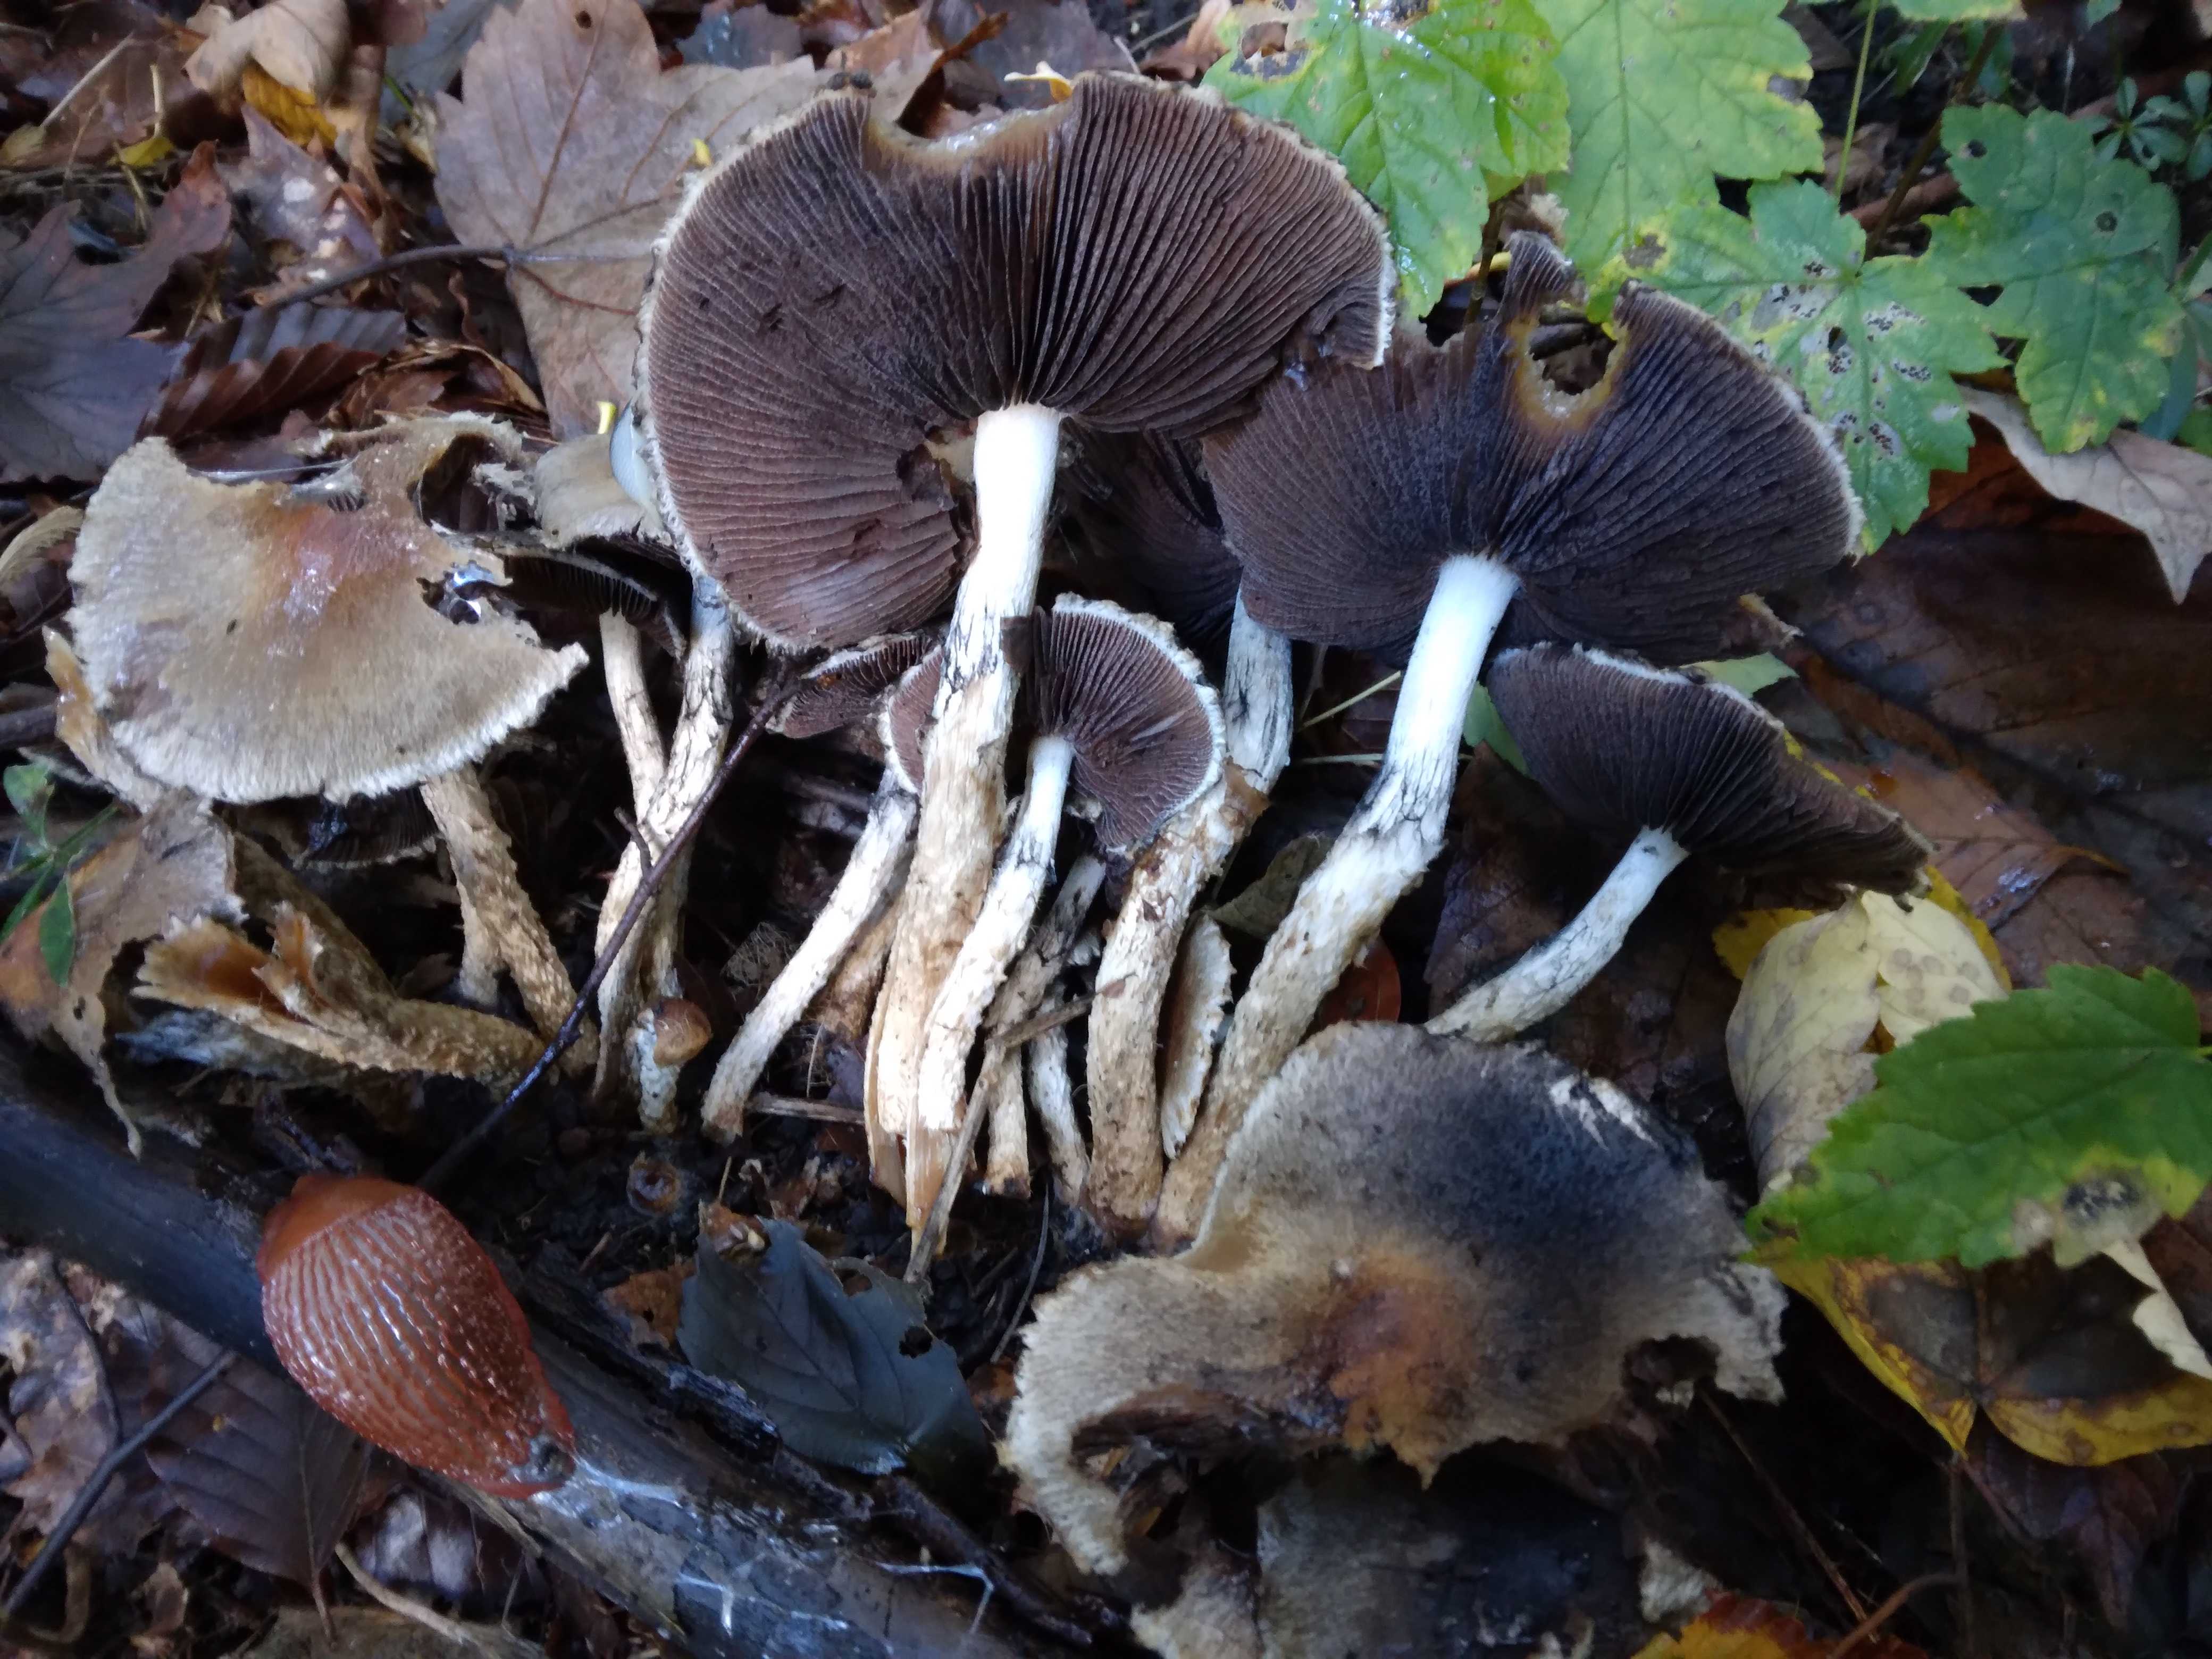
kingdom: Fungi
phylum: Basidiomycota
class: Agaricomycetes
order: Agaricales
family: Psathyrellaceae
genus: Lacrymaria
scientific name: Lacrymaria lacrymabunda
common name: grædende mørkhat
